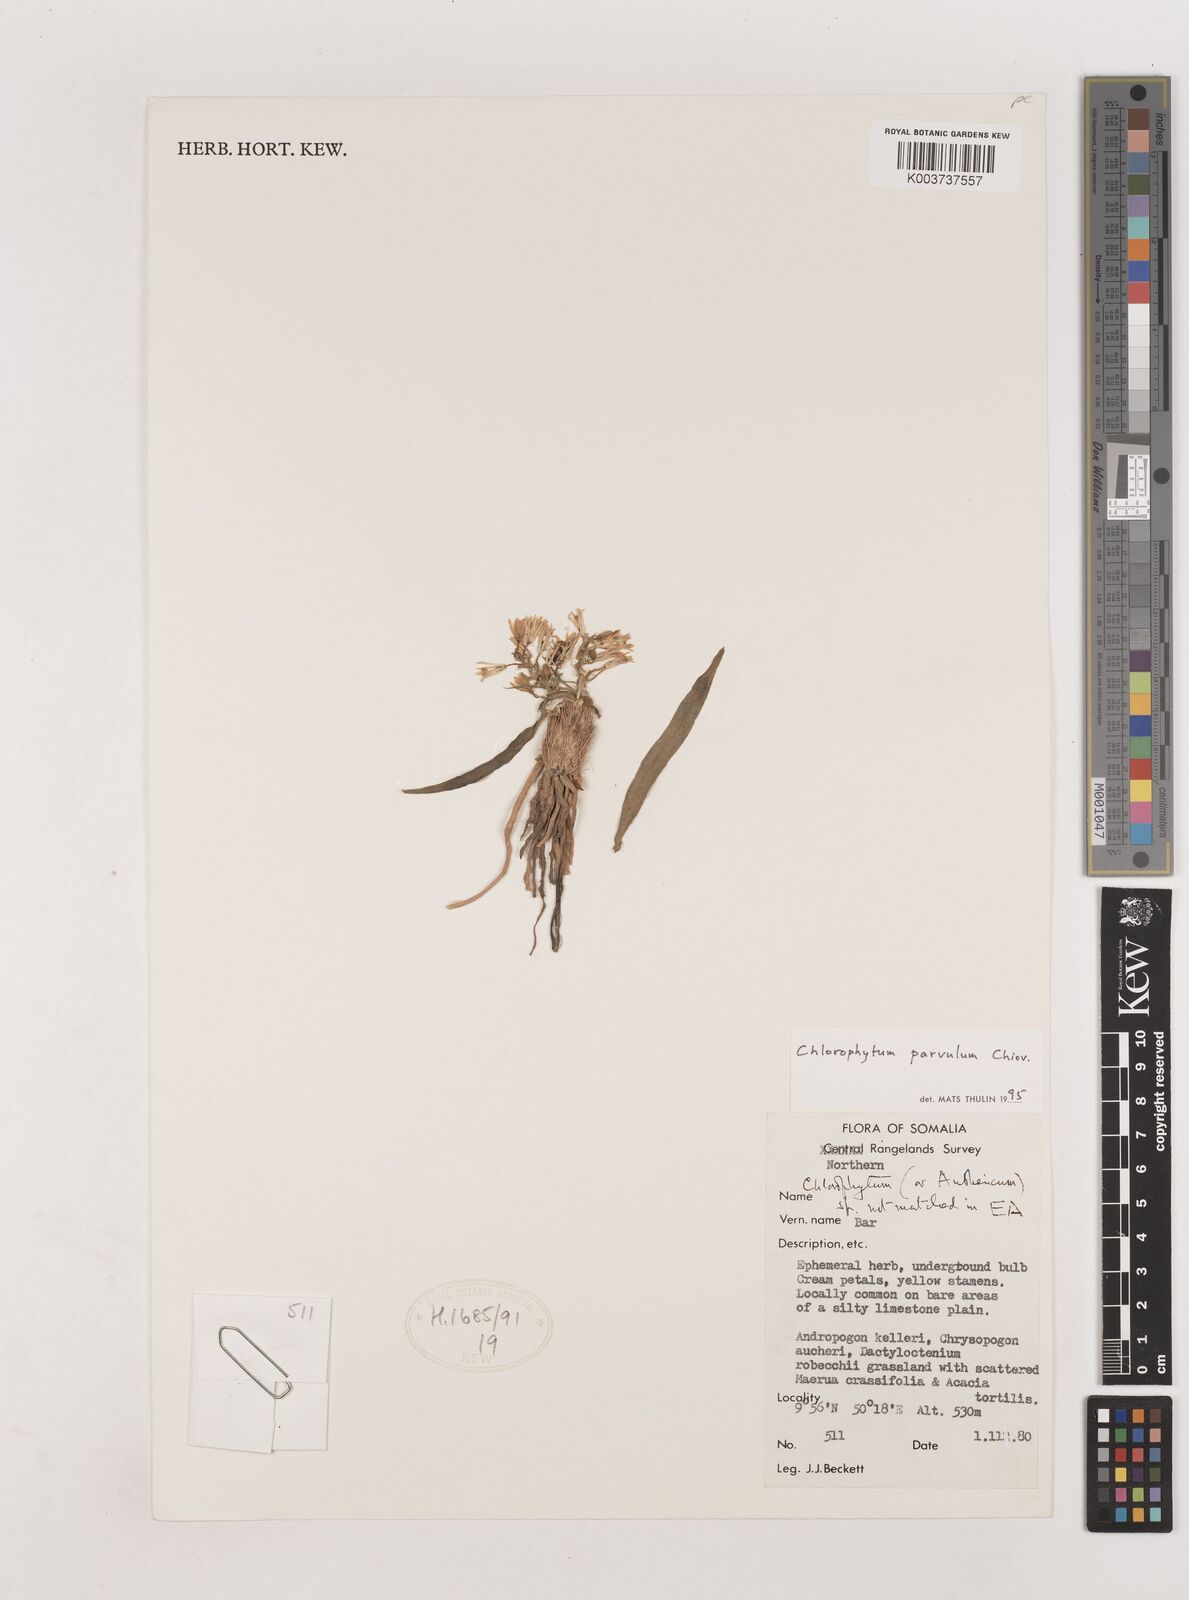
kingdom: Plantae
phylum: Tracheophyta
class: Liliopsida
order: Asparagales
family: Asparagaceae
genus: Chlorophytum
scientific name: Chlorophytum parvulum
